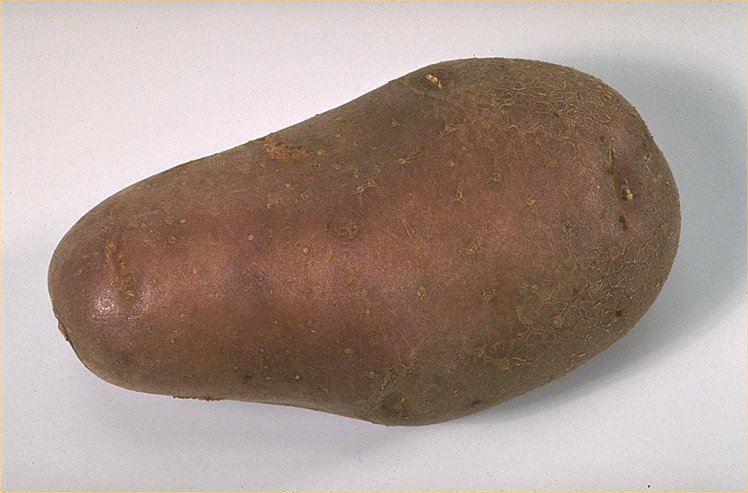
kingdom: Plantae
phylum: Tracheophyta
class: Magnoliopsida
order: Solanales
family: Solanaceae
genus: Solanum
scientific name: Solanum tuberosum
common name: Potato
